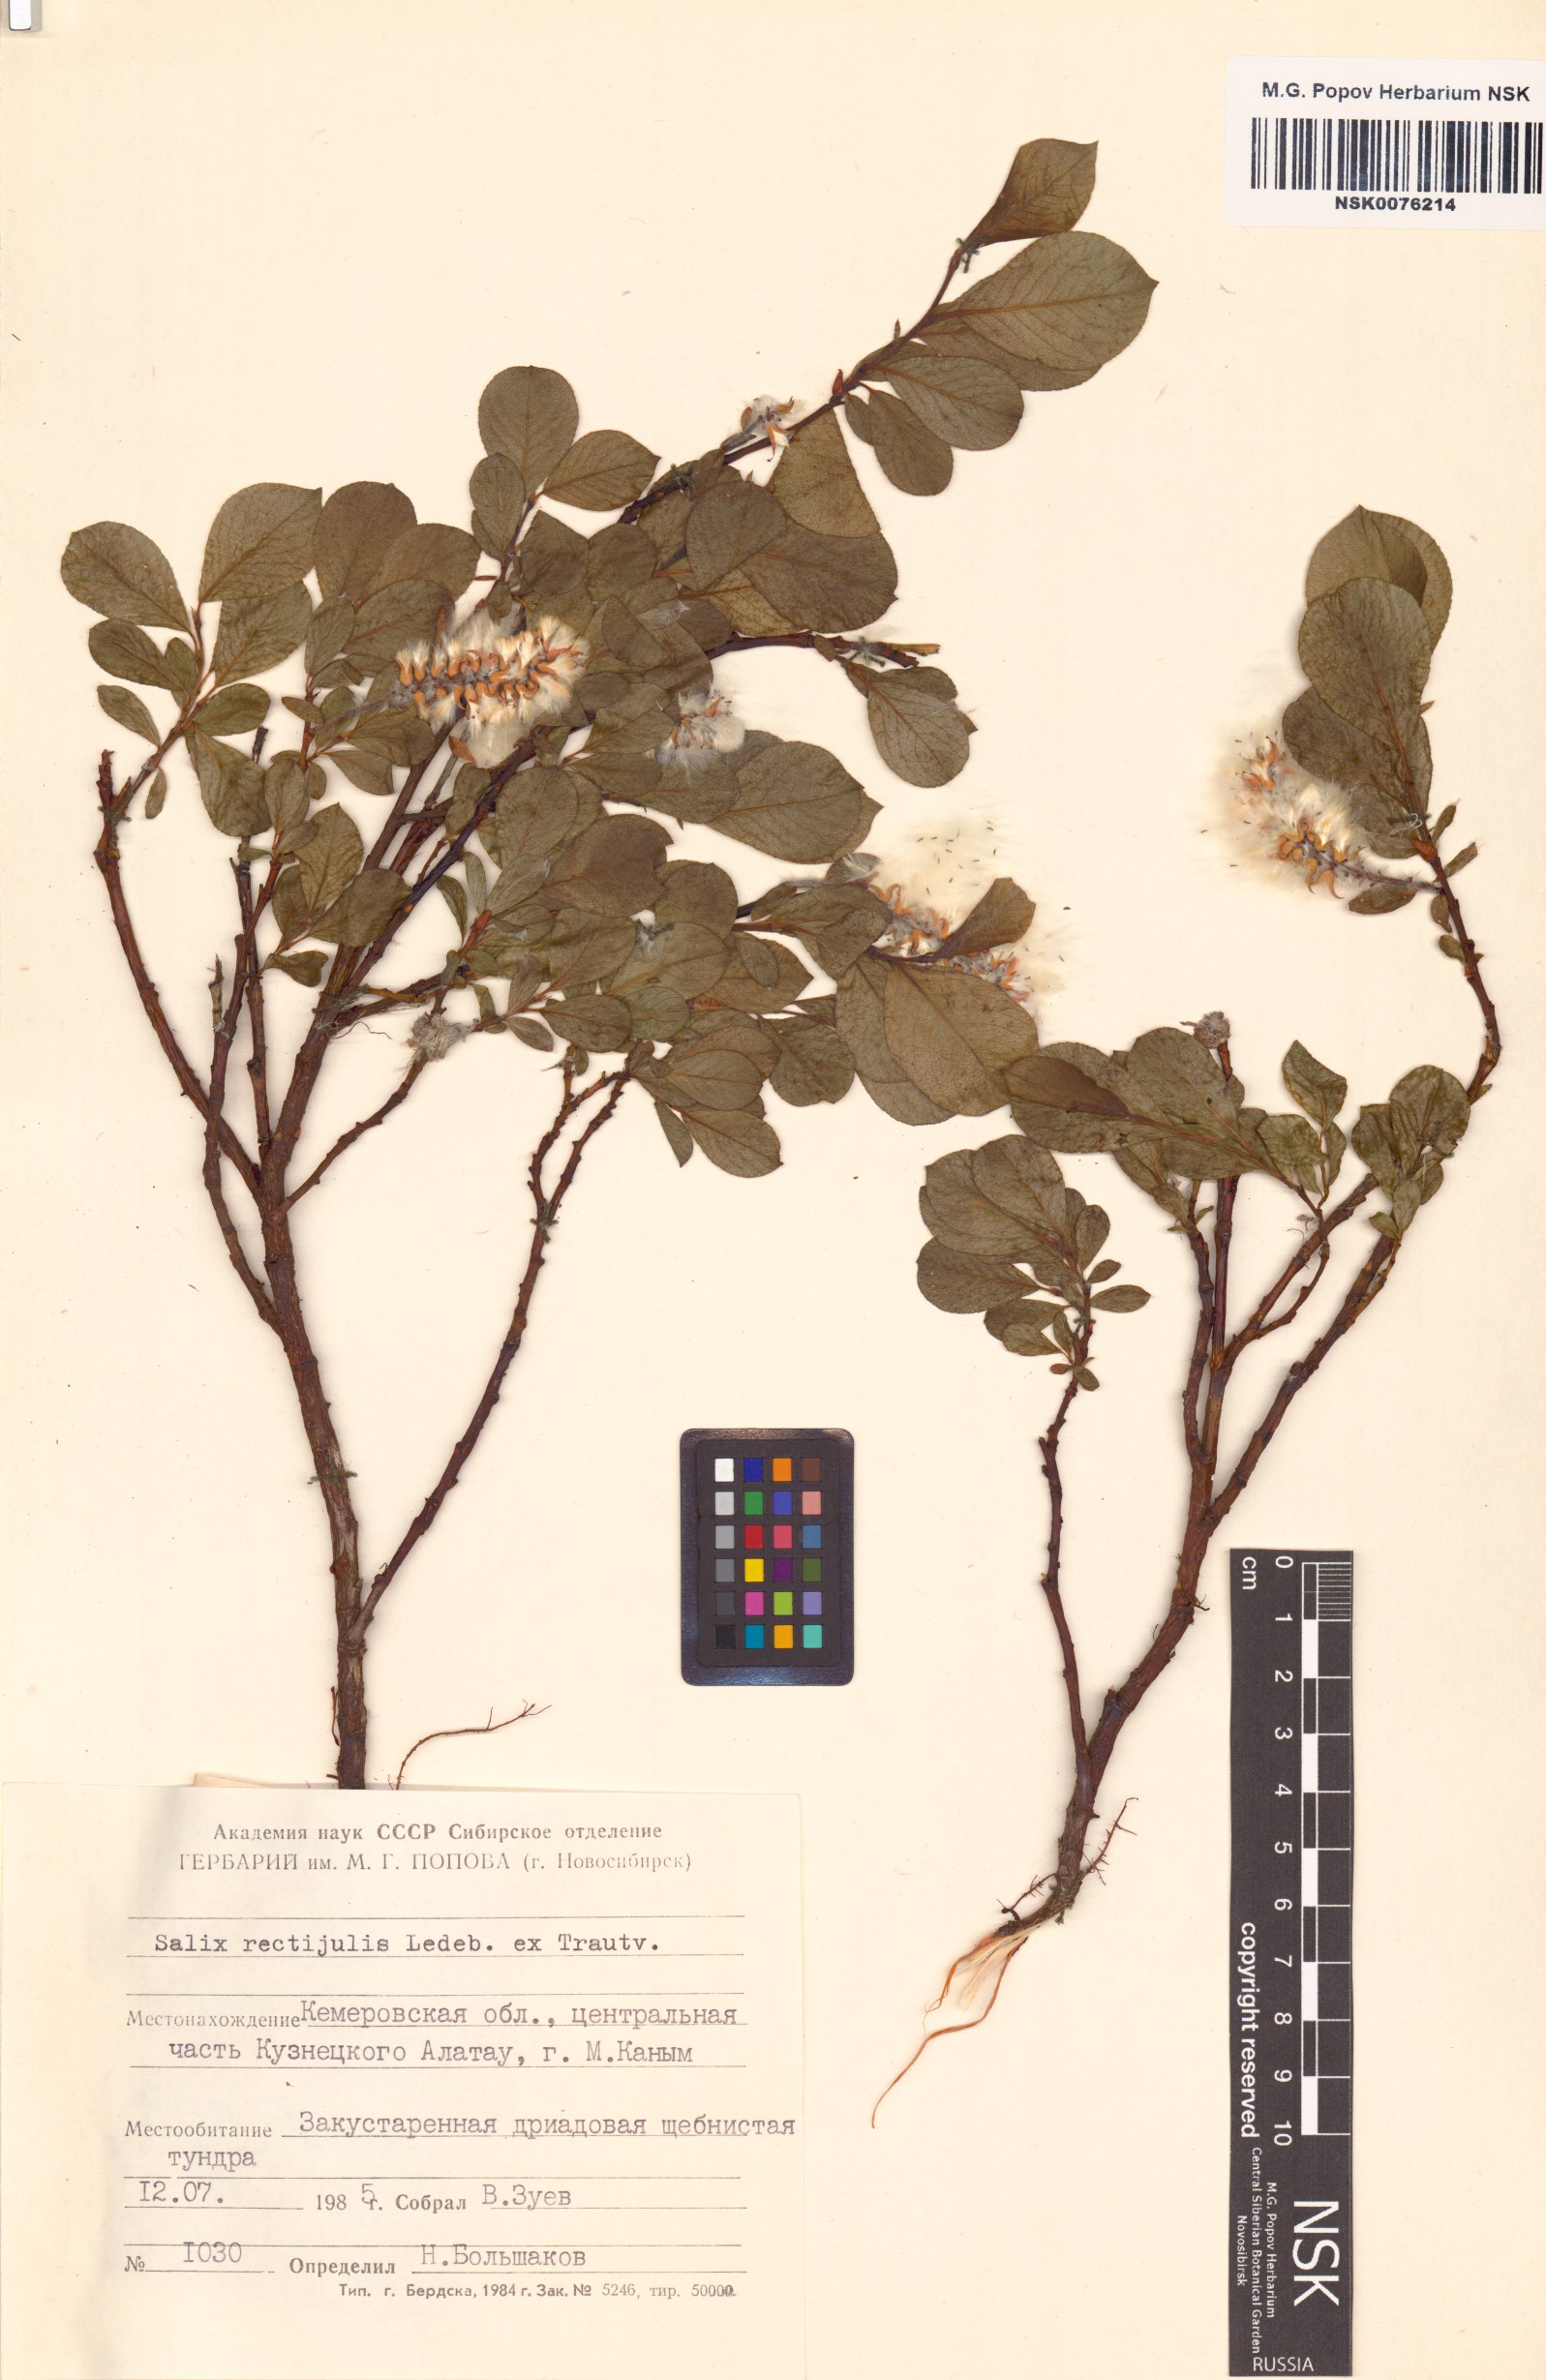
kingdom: Plantae
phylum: Tracheophyta
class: Magnoliopsida
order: Malpighiales
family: Salicaceae
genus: Salix
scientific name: Salix rectijulis
